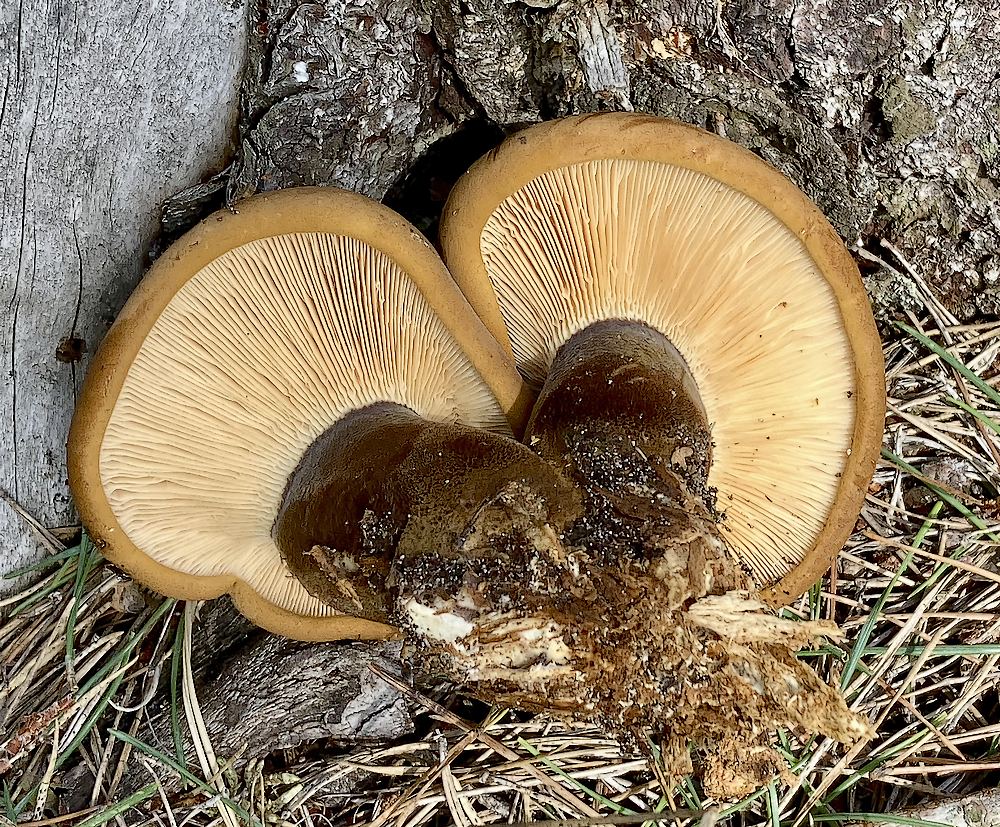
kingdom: Fungi
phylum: Basidiomycota
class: Agaricomycetes
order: Boletales
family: Tapinellaceae
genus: Tapinella
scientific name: Tapinella atrotomentosa
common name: sortfiltet viftesvamp
